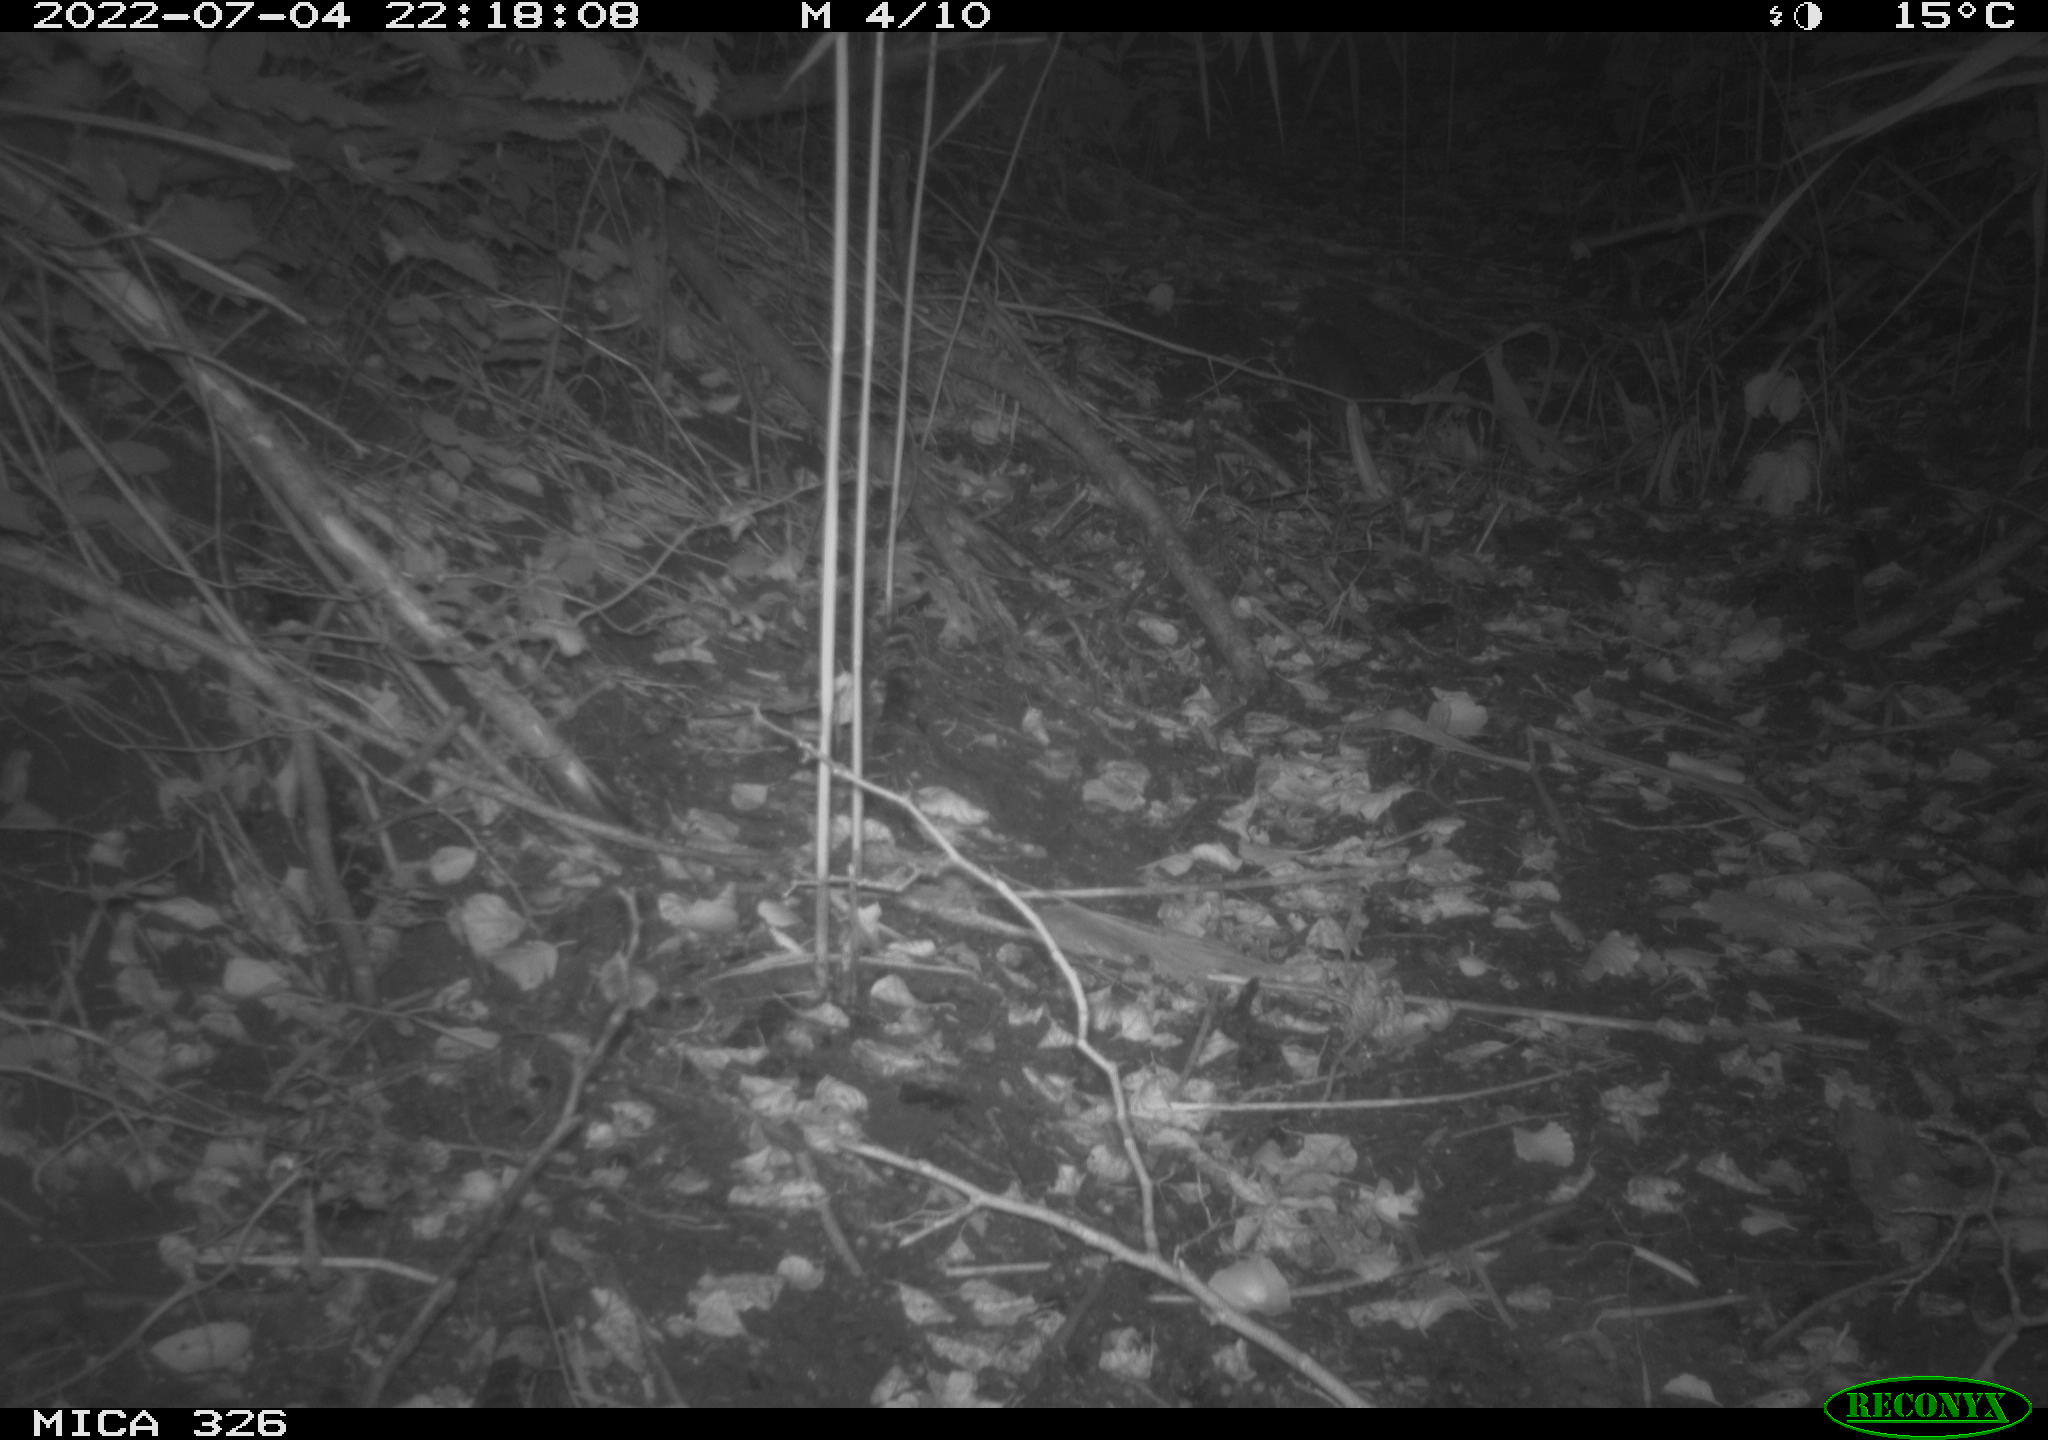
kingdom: Animalia
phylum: Chordata
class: Mammalia
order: Rodentia
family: Muridae
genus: Rattus
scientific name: Rattus norvegicus
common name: Brown rat
